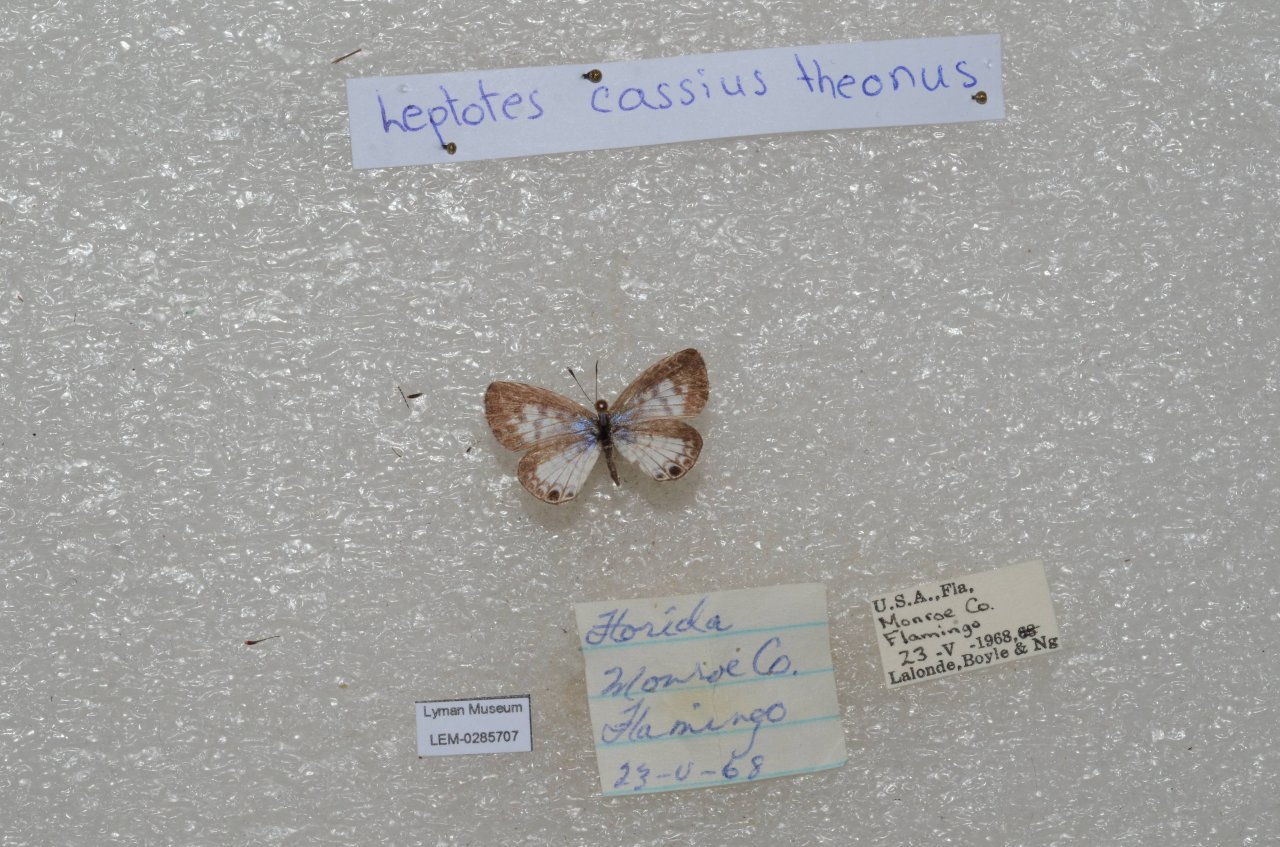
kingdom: Animalia
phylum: Arthropoda
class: Insecta
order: Lepidoptera
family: Lycaenidae
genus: Leptotes
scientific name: Leptotes cassius
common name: Cassius Blue
